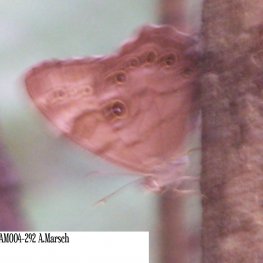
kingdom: Animalia
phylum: Arthropoda
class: Insecta
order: Lepidoptera
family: Nymphalidae
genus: Lethe
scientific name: Lethe anthedon
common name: Northern Pearly-Eye
